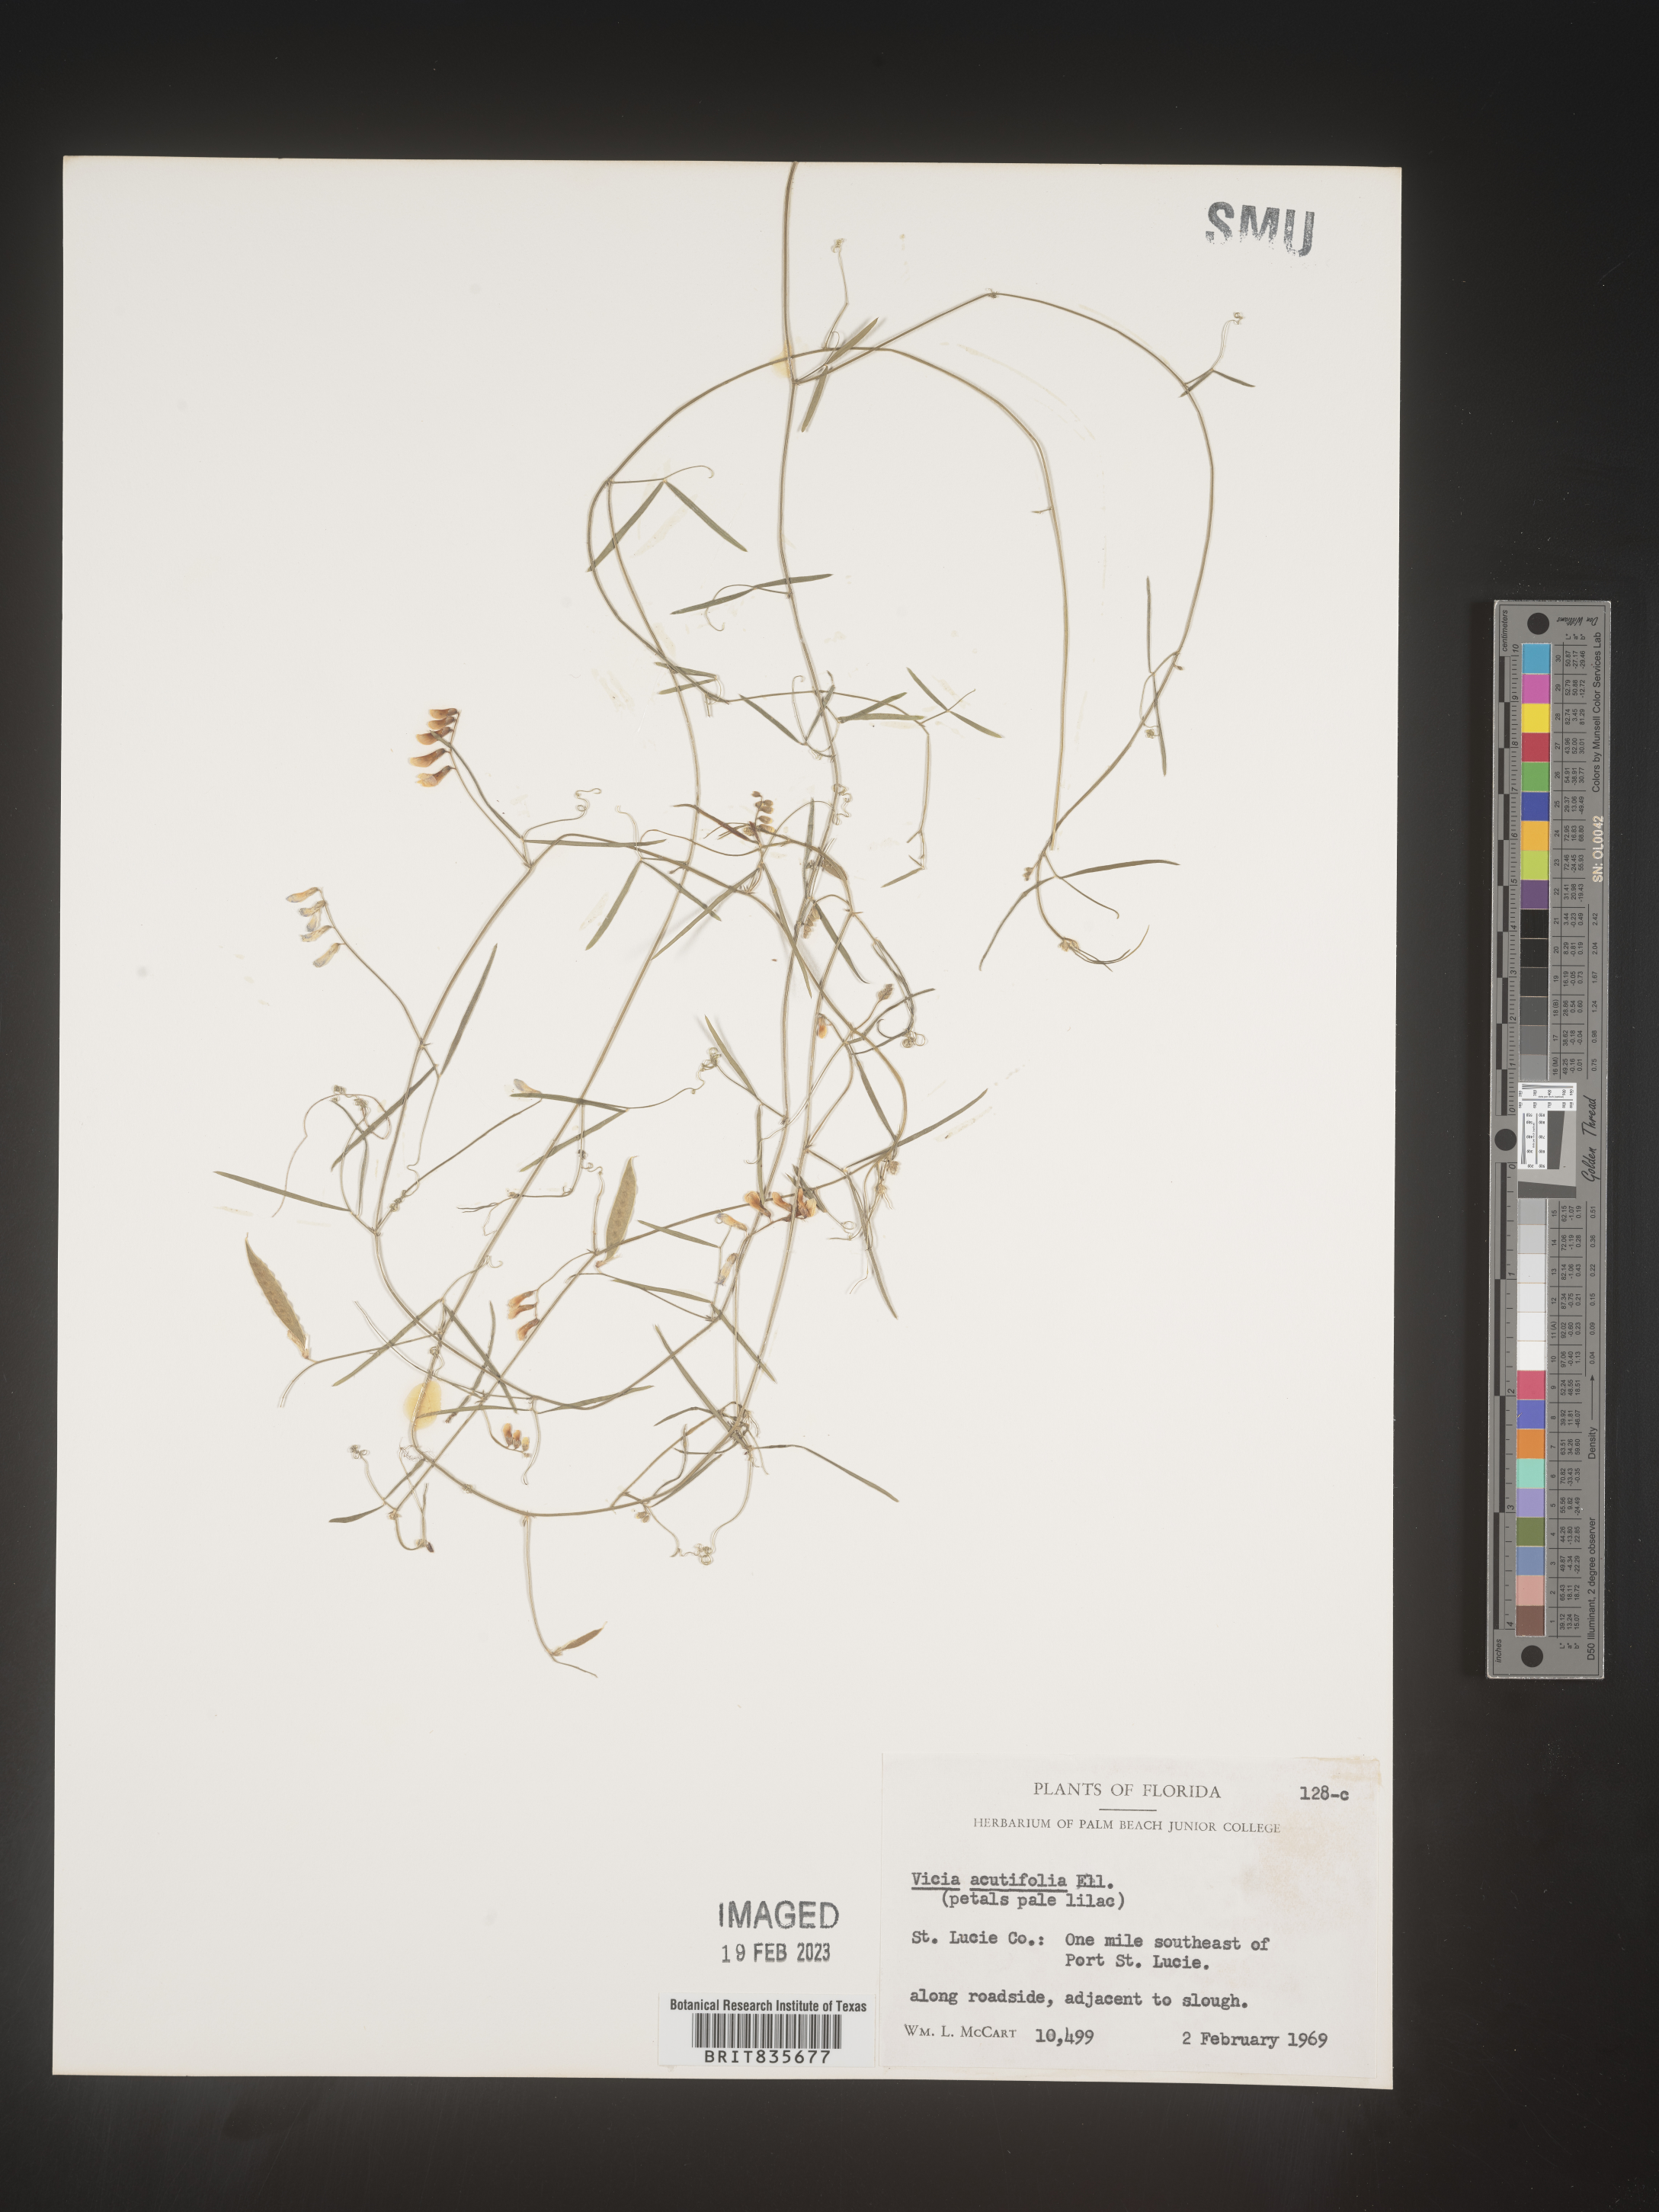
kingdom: Plantae
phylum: Tracheophyta
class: Magnoliopsida
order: Fabales
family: Fabaceae
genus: Vicia
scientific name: Vicia acutifolia
